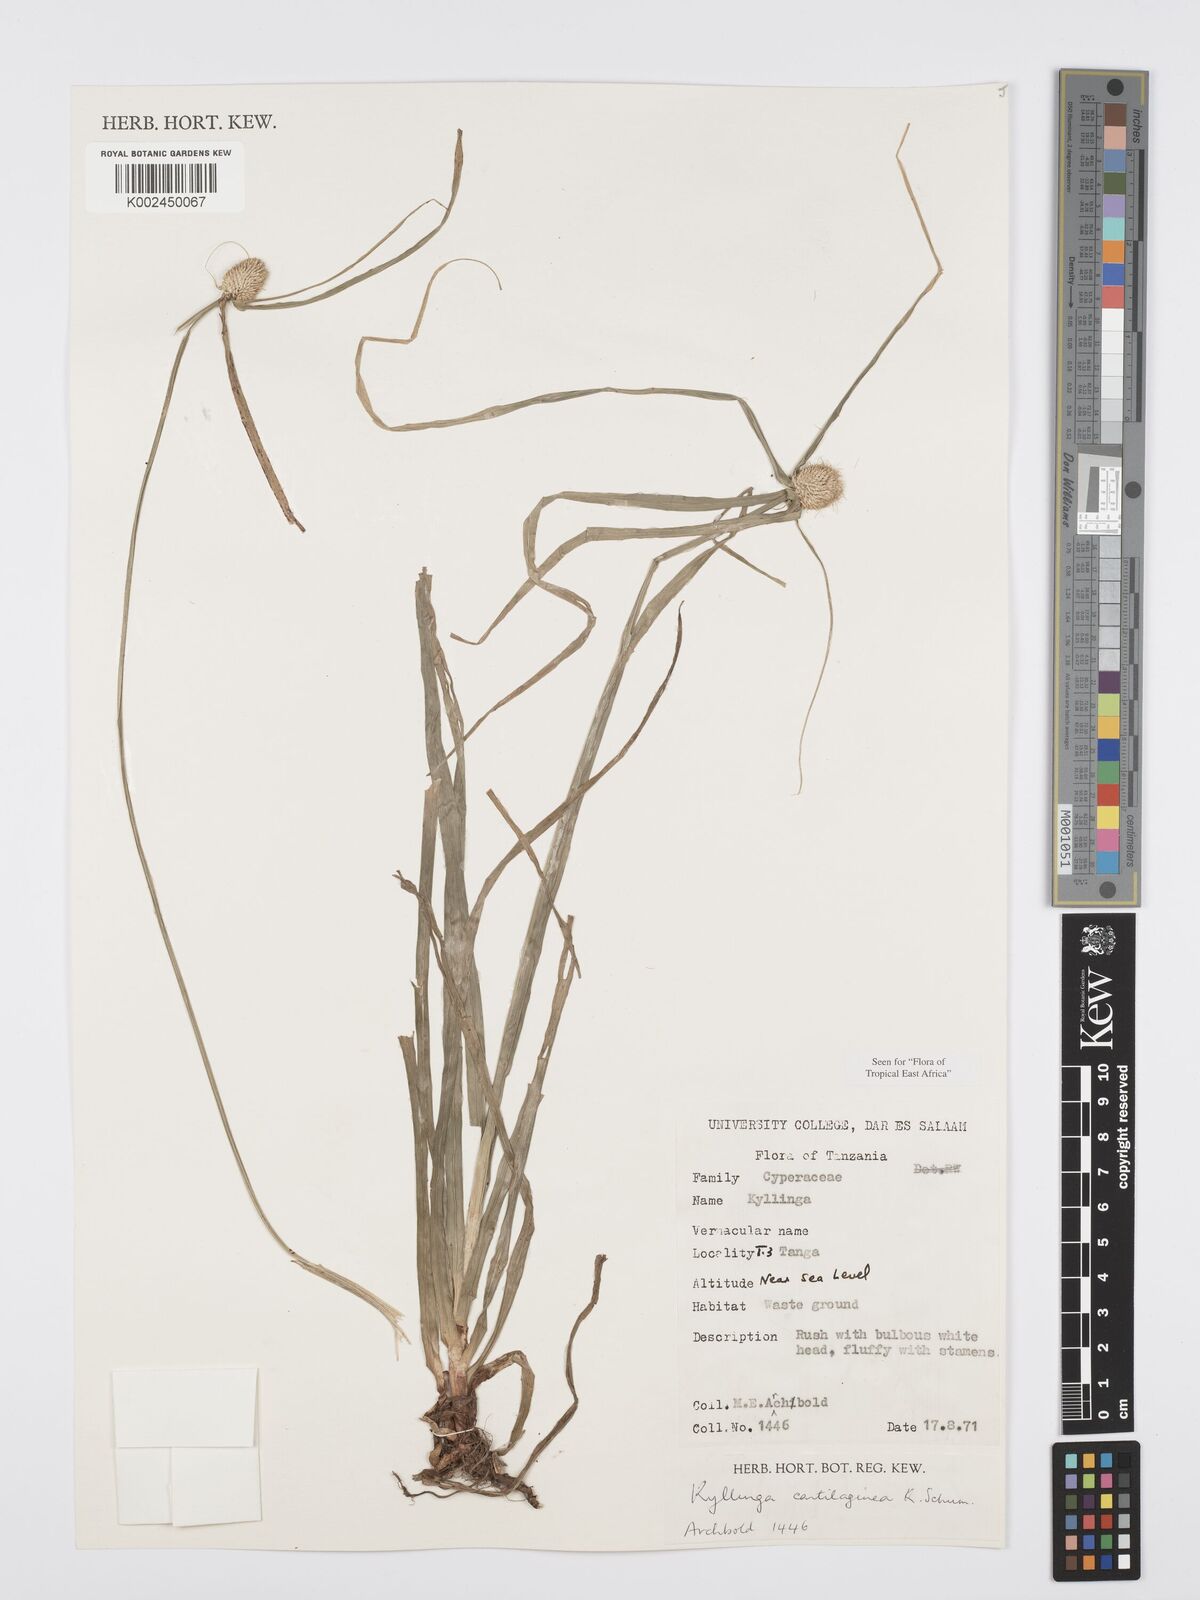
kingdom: Plantae
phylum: Tracheophyta
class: Liliopsida
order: Poales
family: Cyperaceae
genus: Cyperus
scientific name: Cyperus cartilagineus
